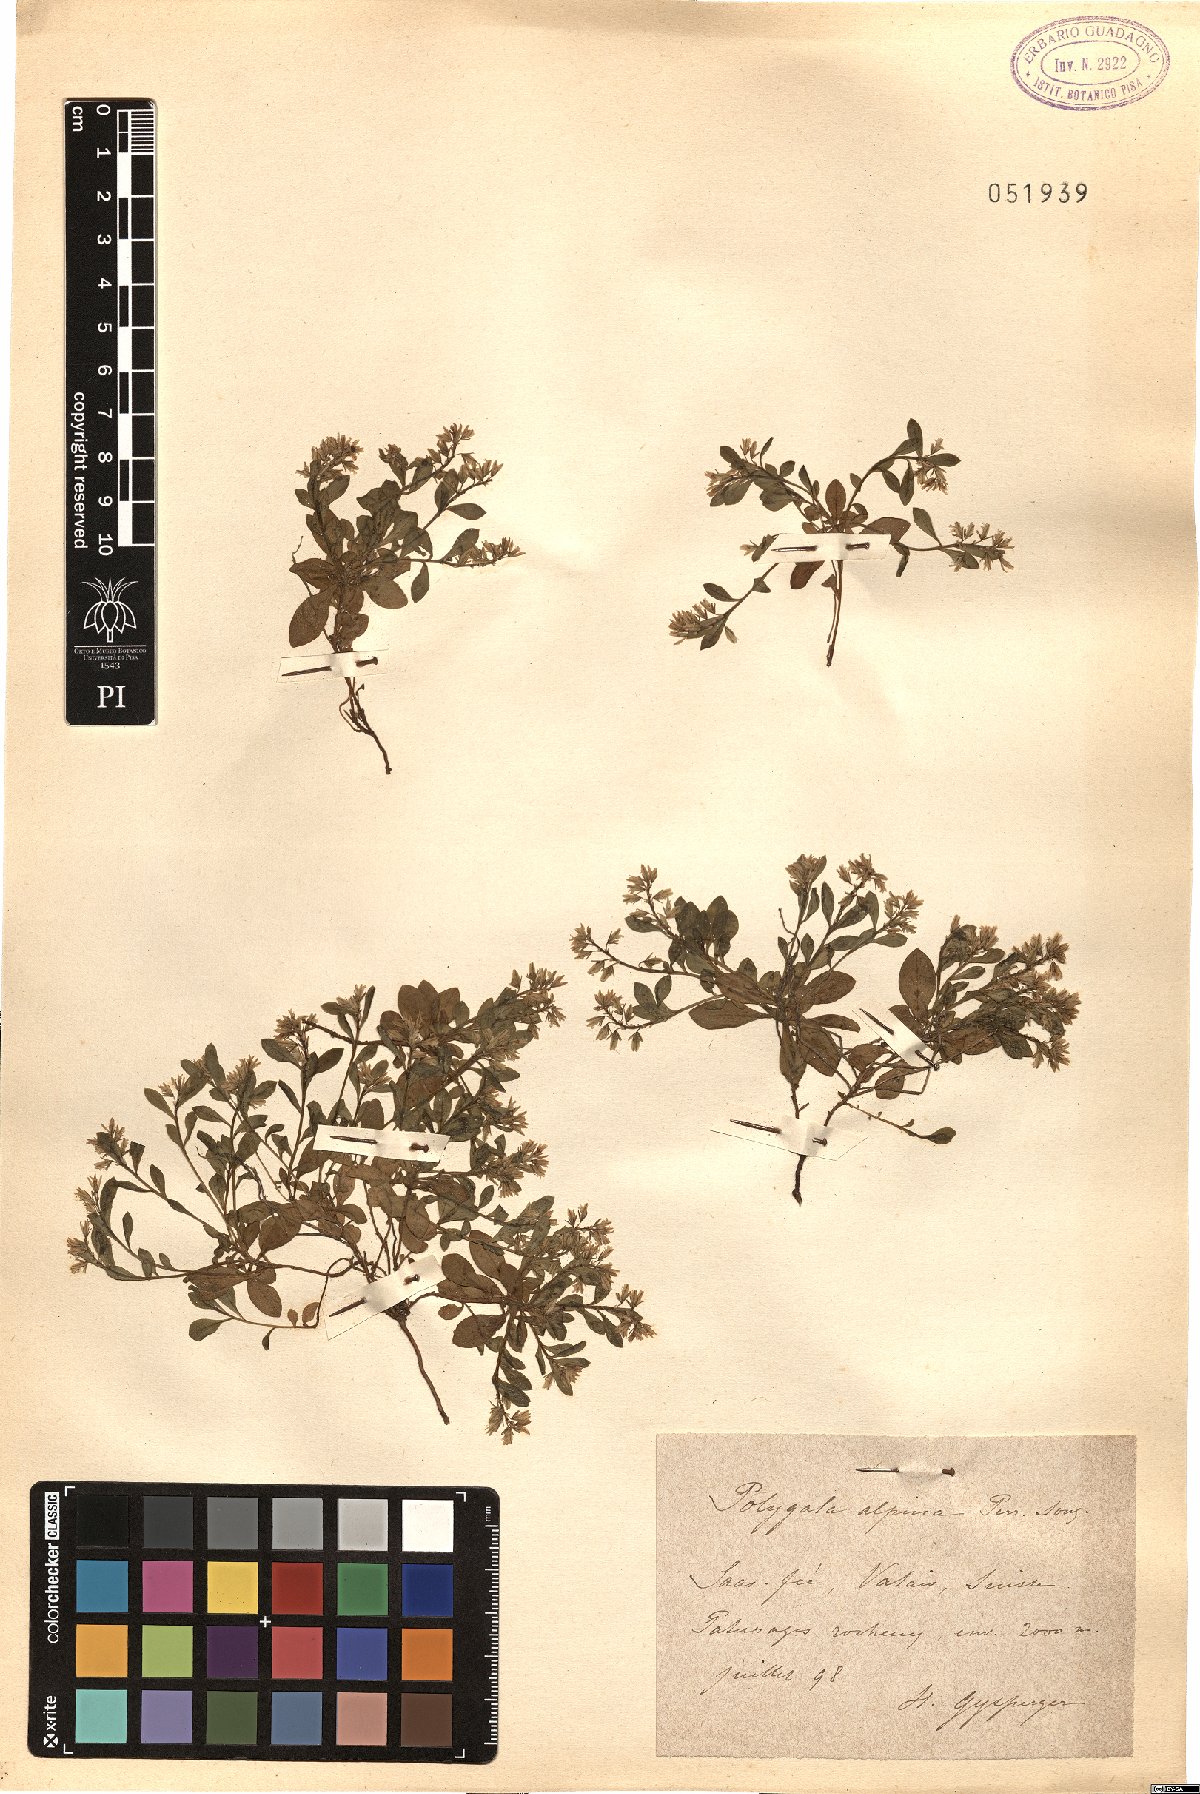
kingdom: Plantae
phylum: Tracheophyta
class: Magnoliopsida
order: Fabales
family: Polygalaceae
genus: Polygala
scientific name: Polygala alpina
